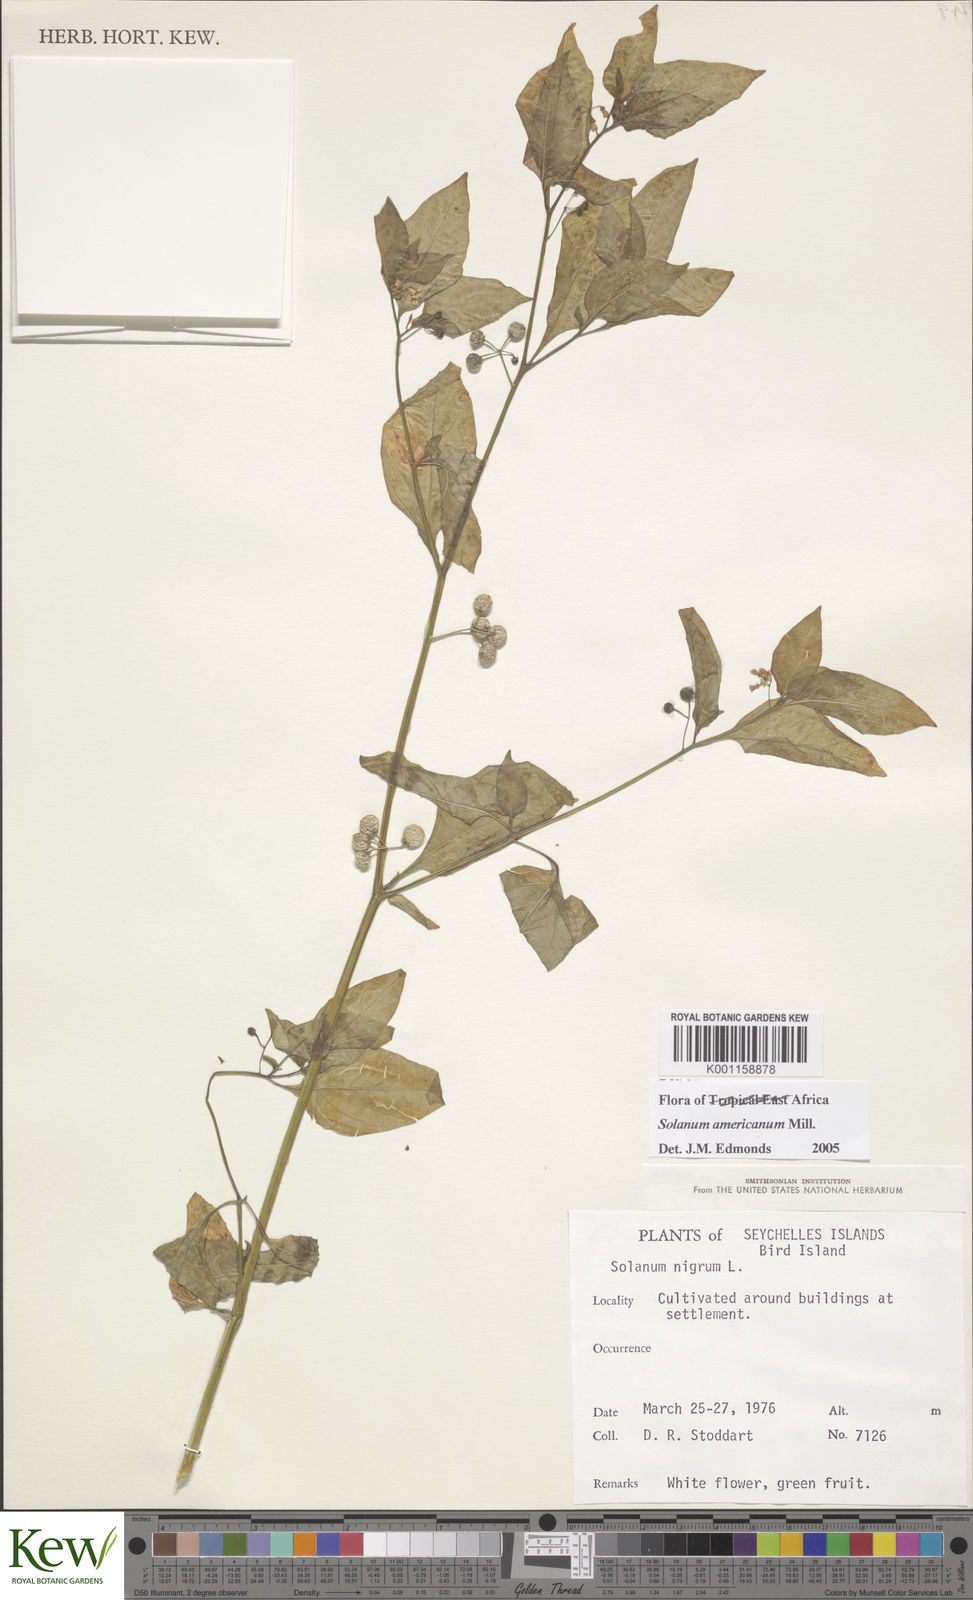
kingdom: Plantae
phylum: Tracheophyta
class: Magnoliopsida
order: Solanales
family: Solanaceae
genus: Solanum
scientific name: Solanum americanum
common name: American black nightshade
